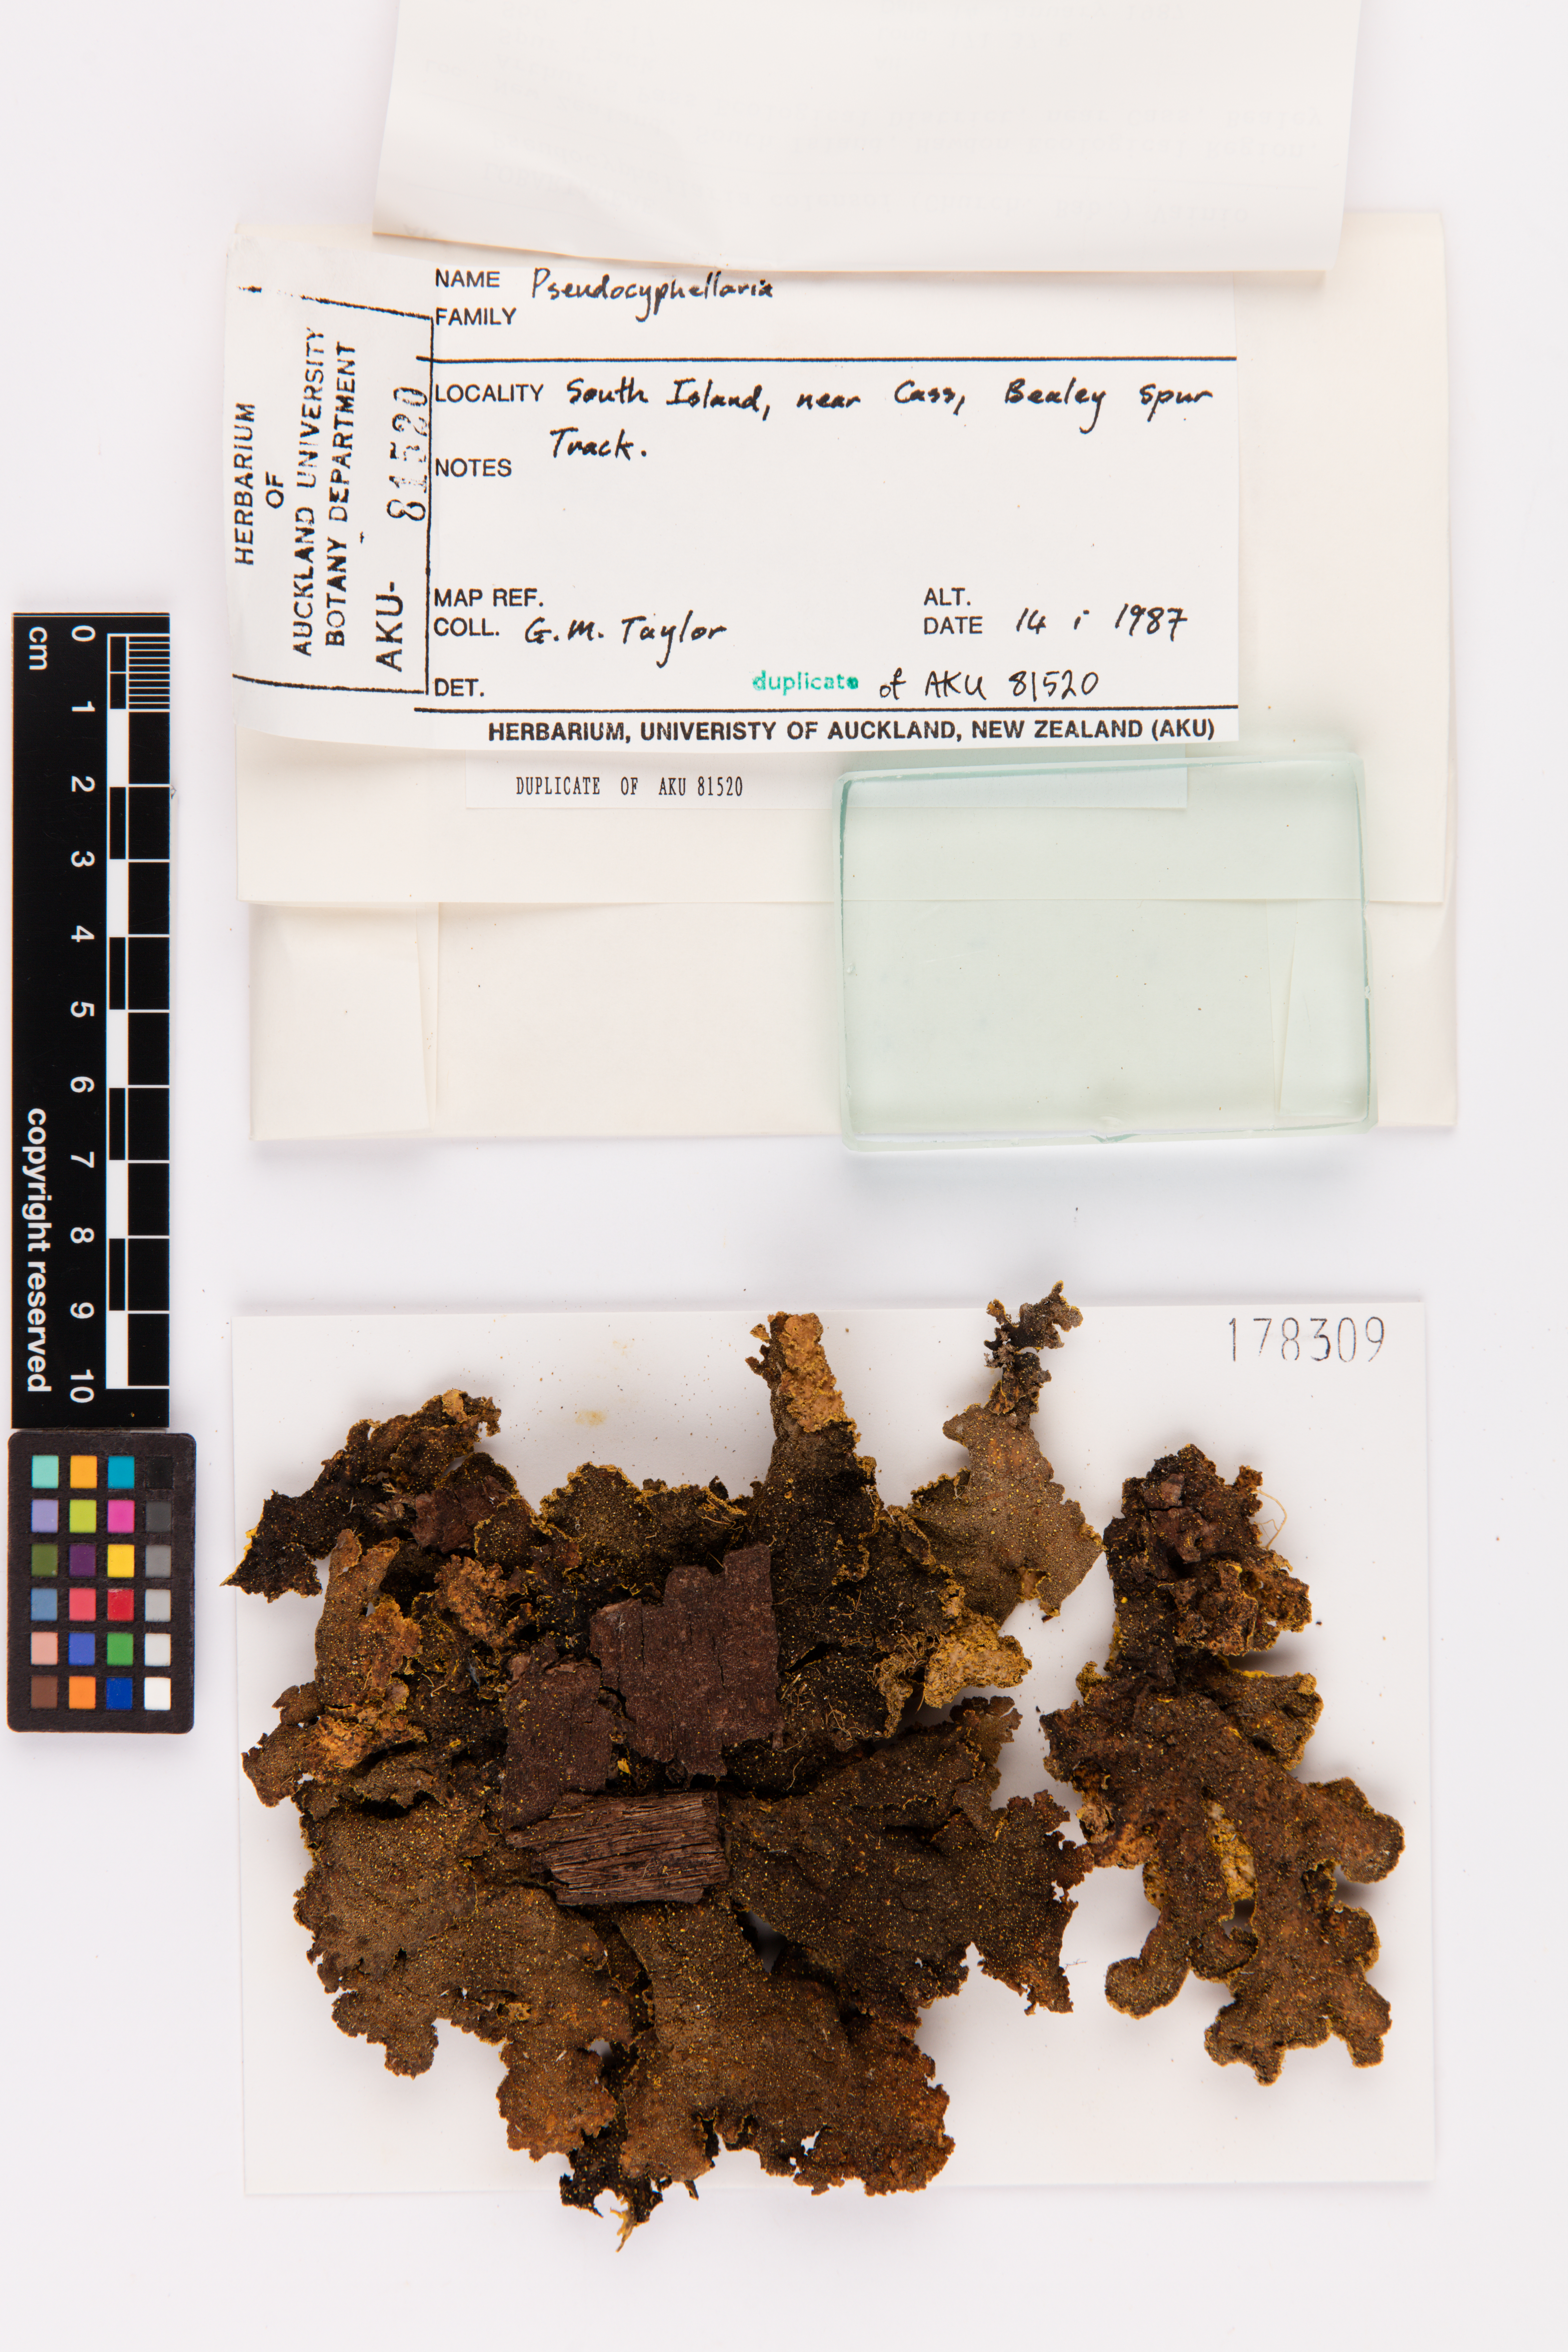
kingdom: Fungi
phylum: Ascomycota
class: Lecanoromycetes
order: Peltigerales
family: Lobariaceae
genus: Yarrumia
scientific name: Yarrumia colensoi
